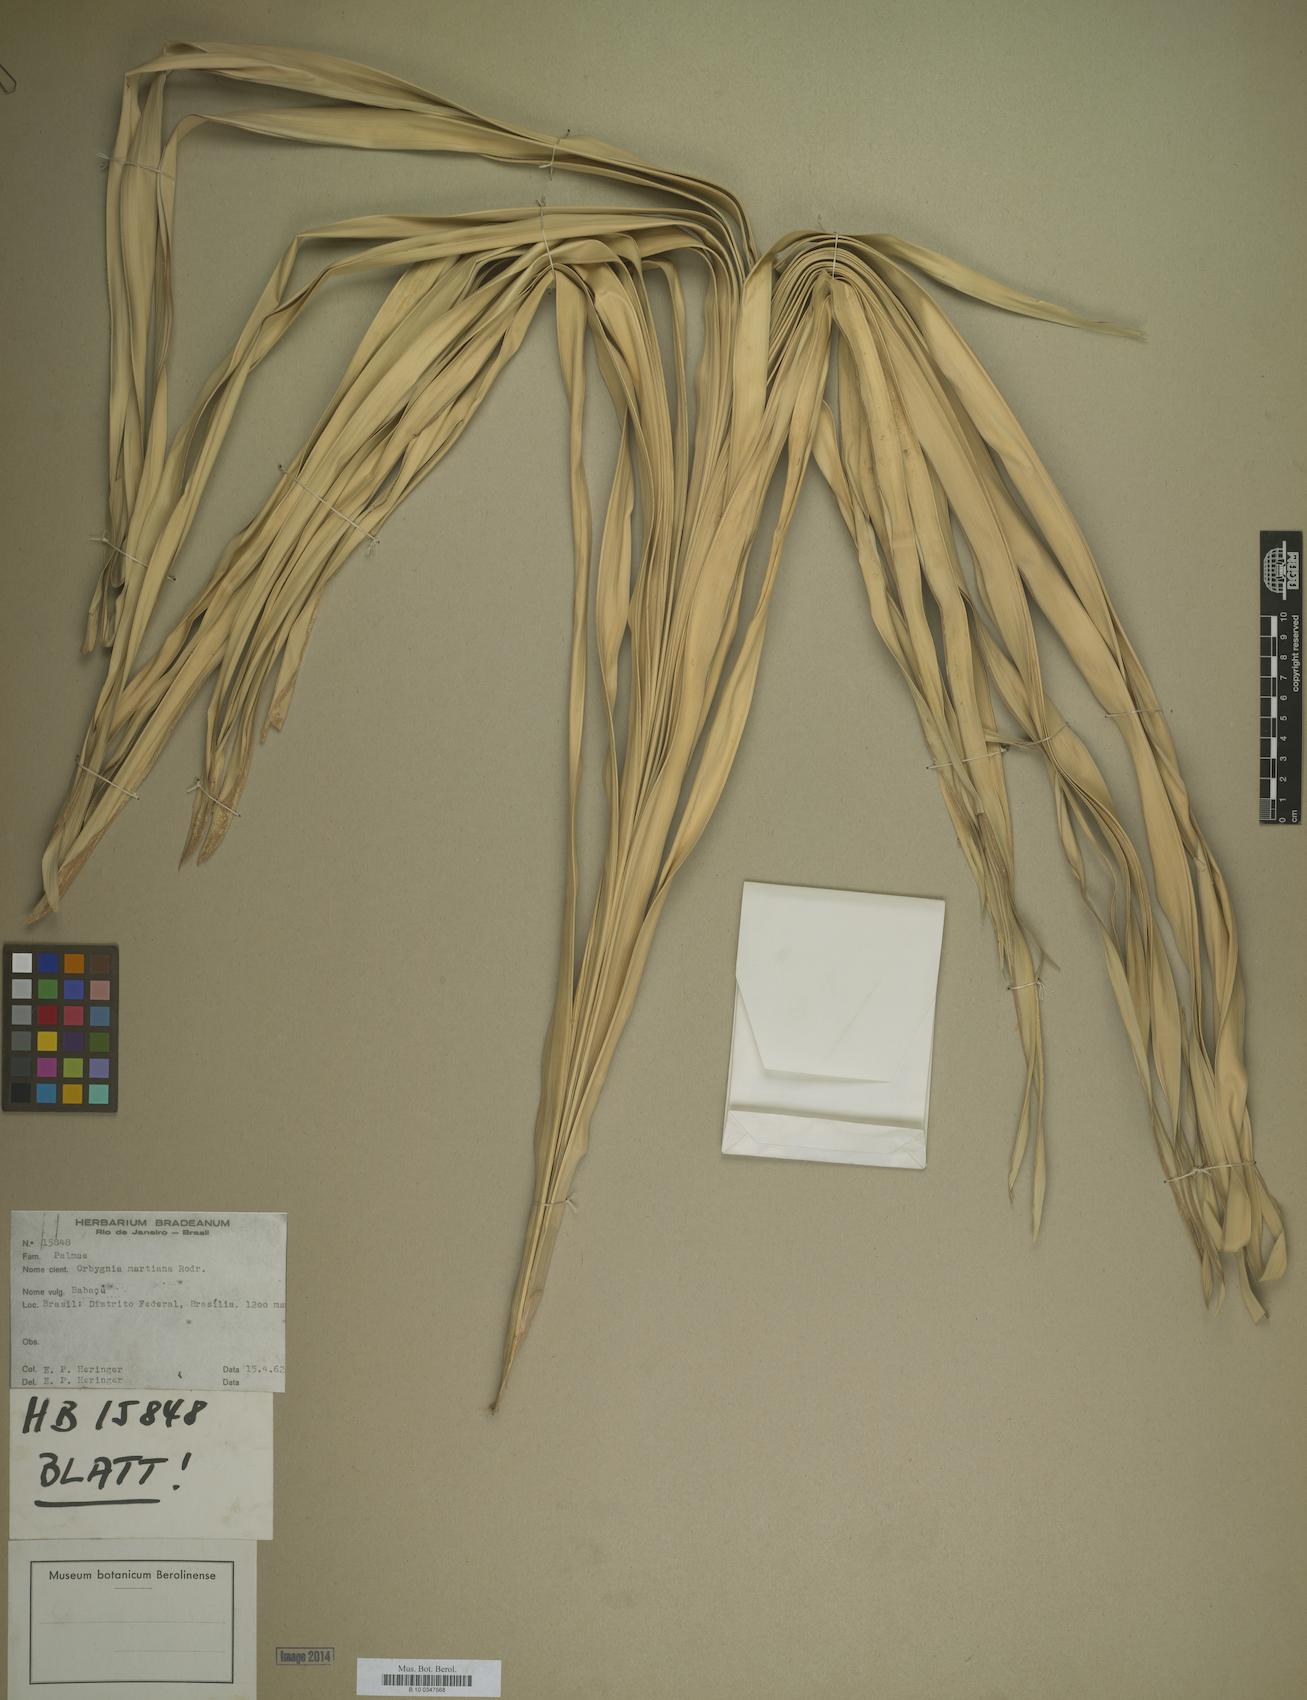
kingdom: Plantae
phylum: Tracheophyta
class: Liliopsida
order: Arecales
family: Arecaceae
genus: Attalea
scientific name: Attalea speciosa
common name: Babassu palm
